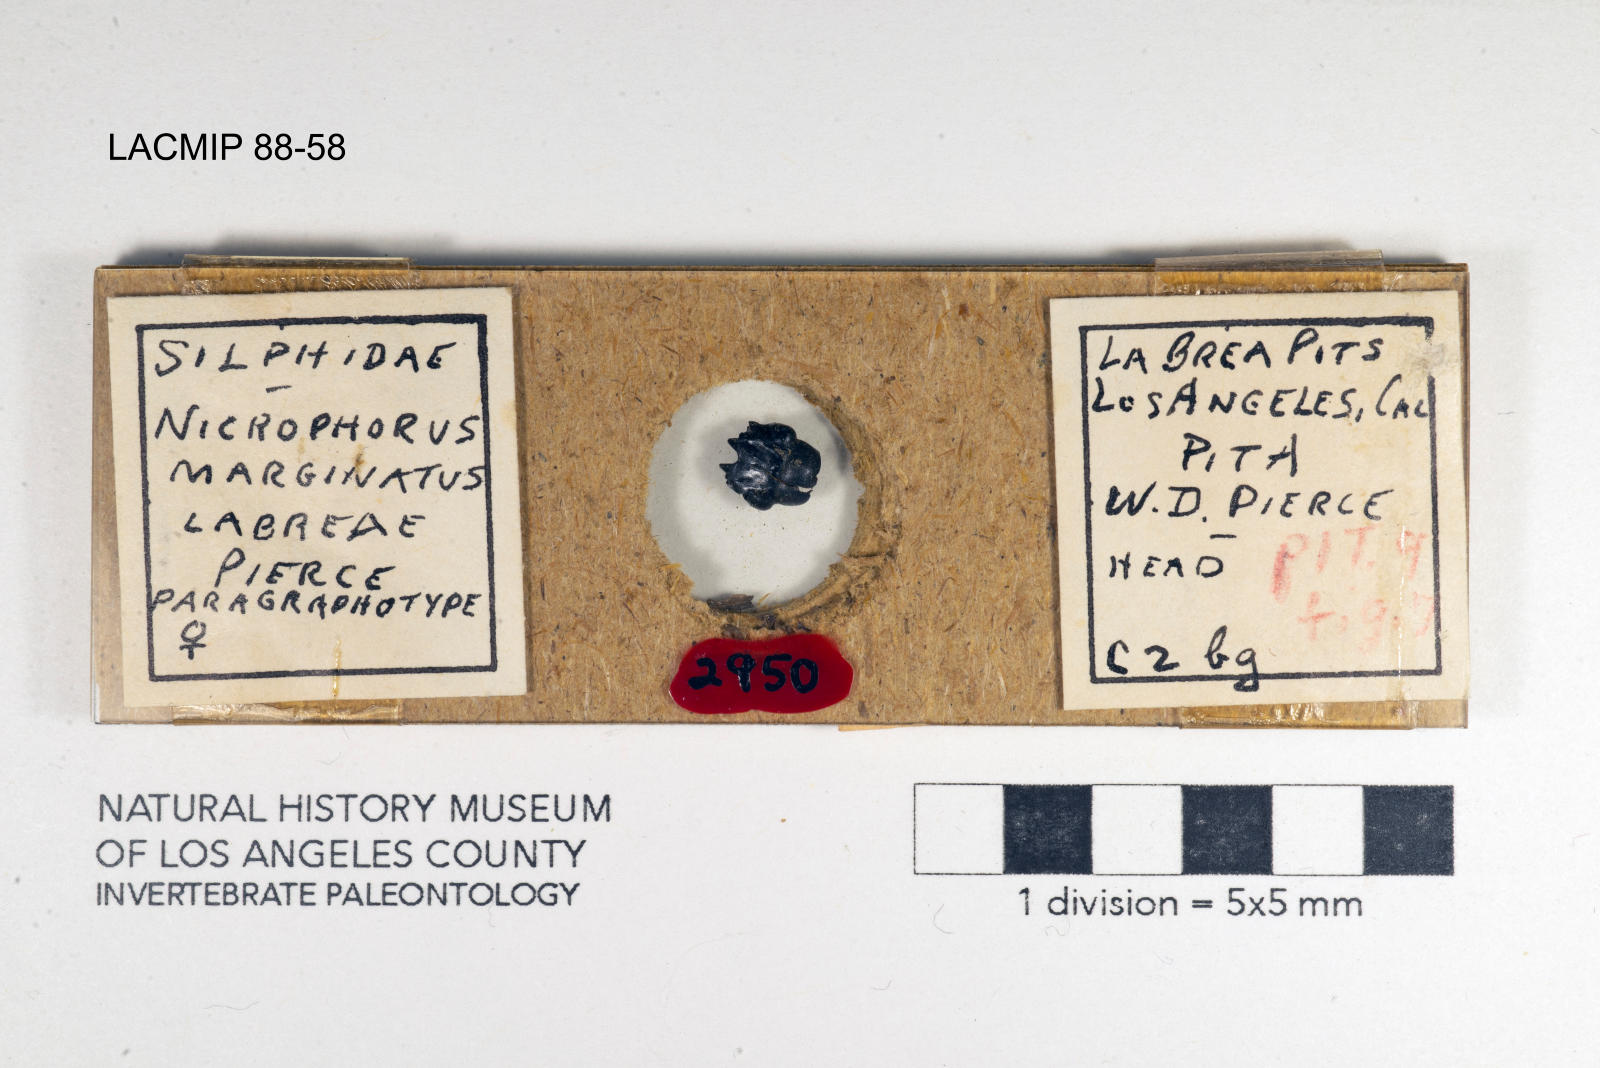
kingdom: Animalia
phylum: Arthropoda
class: Insecta
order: Coleoptera
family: Staphylinidae
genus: Nicrophorus
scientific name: Nicrophorus marginatus
